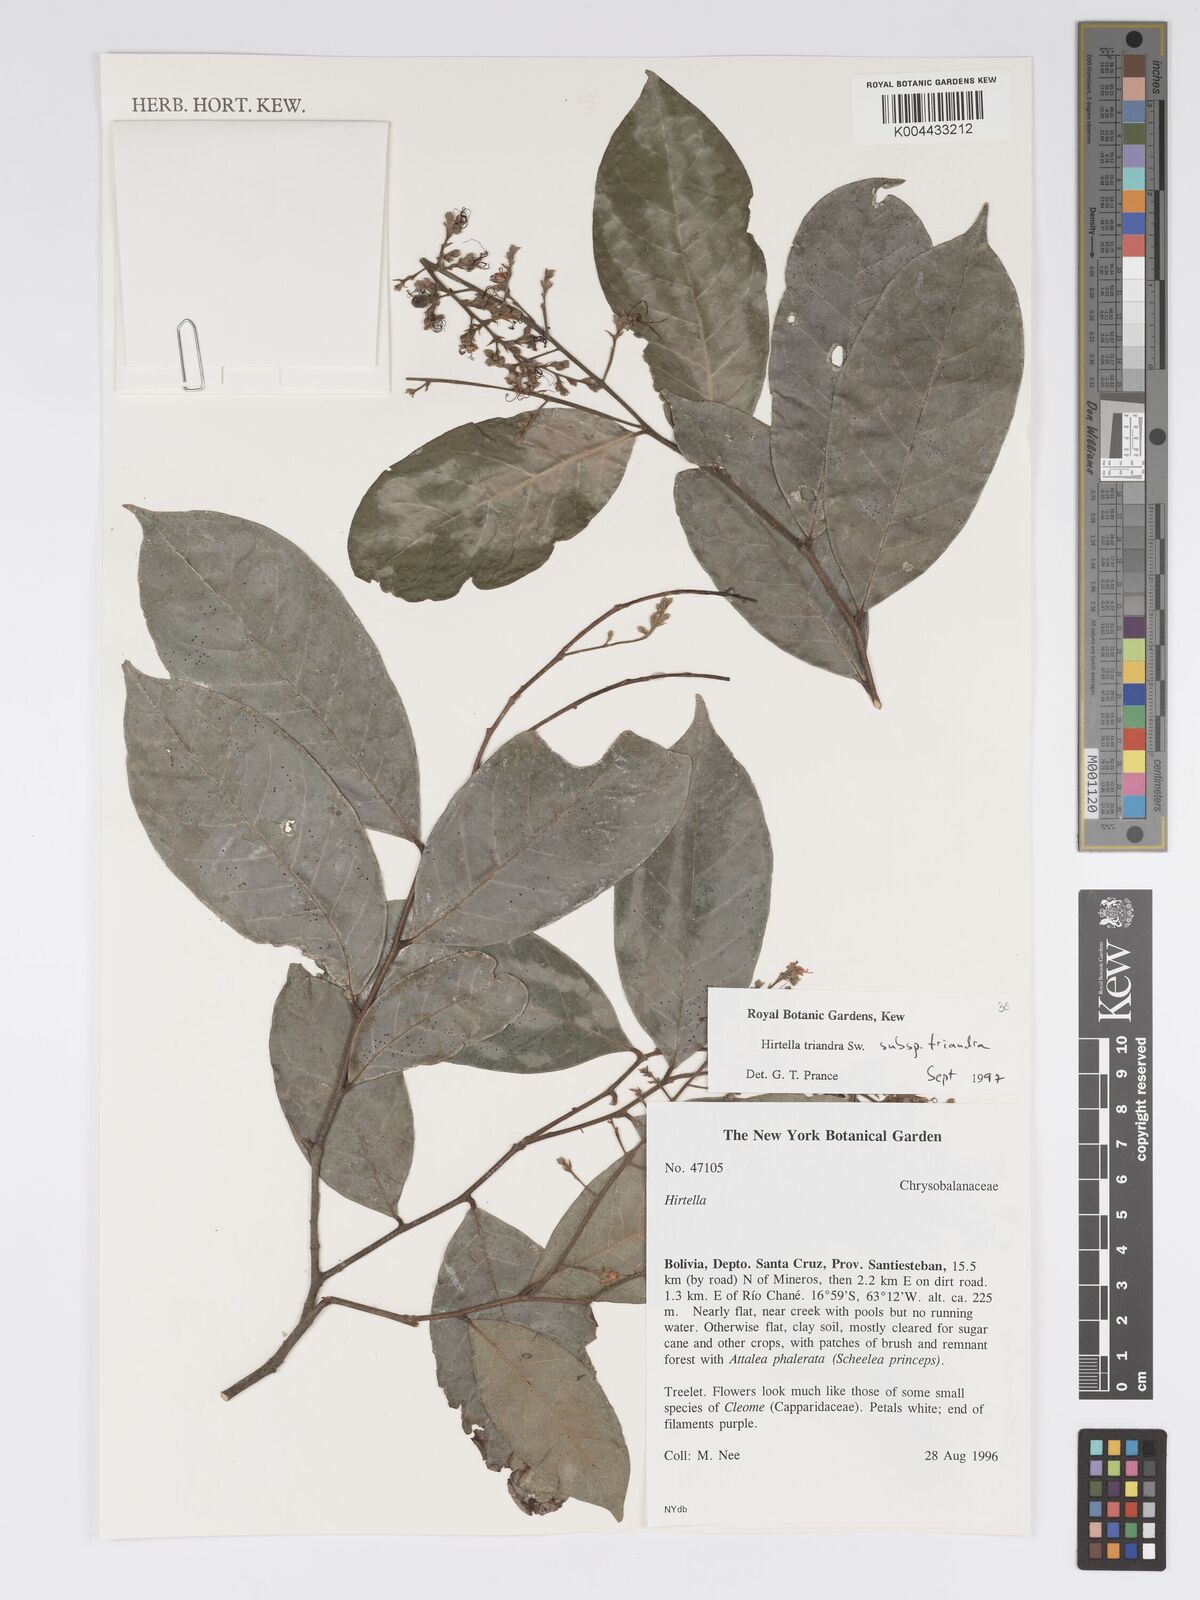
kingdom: Plantae
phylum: Tracheophyta
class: Magnoliopsida
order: Malpighiales
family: Chrysobalanaceae
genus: Hirtella
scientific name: Hirtella triandra
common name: Hairy plum
